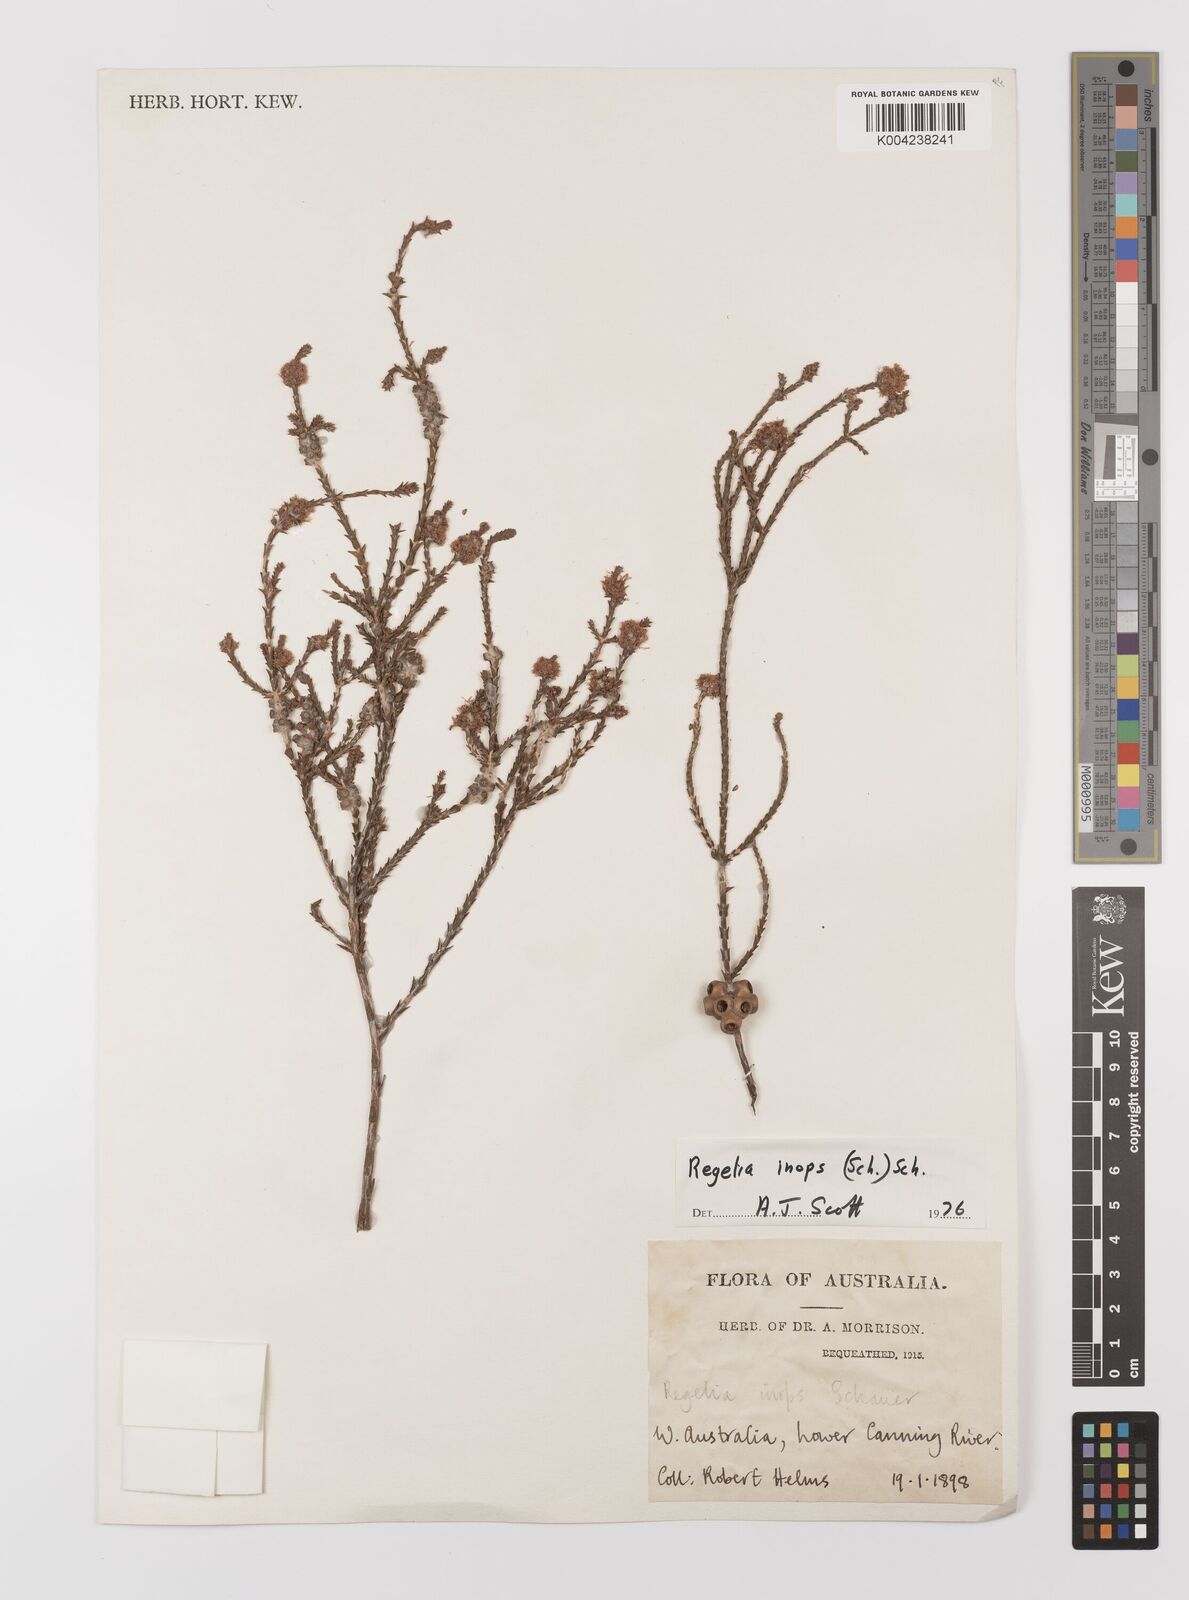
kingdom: Plantae
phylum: Tracheophyta
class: Magnoliopsida
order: Myrtales
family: Myrtaceae
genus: Melaleuca
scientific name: Melaleuca inops
